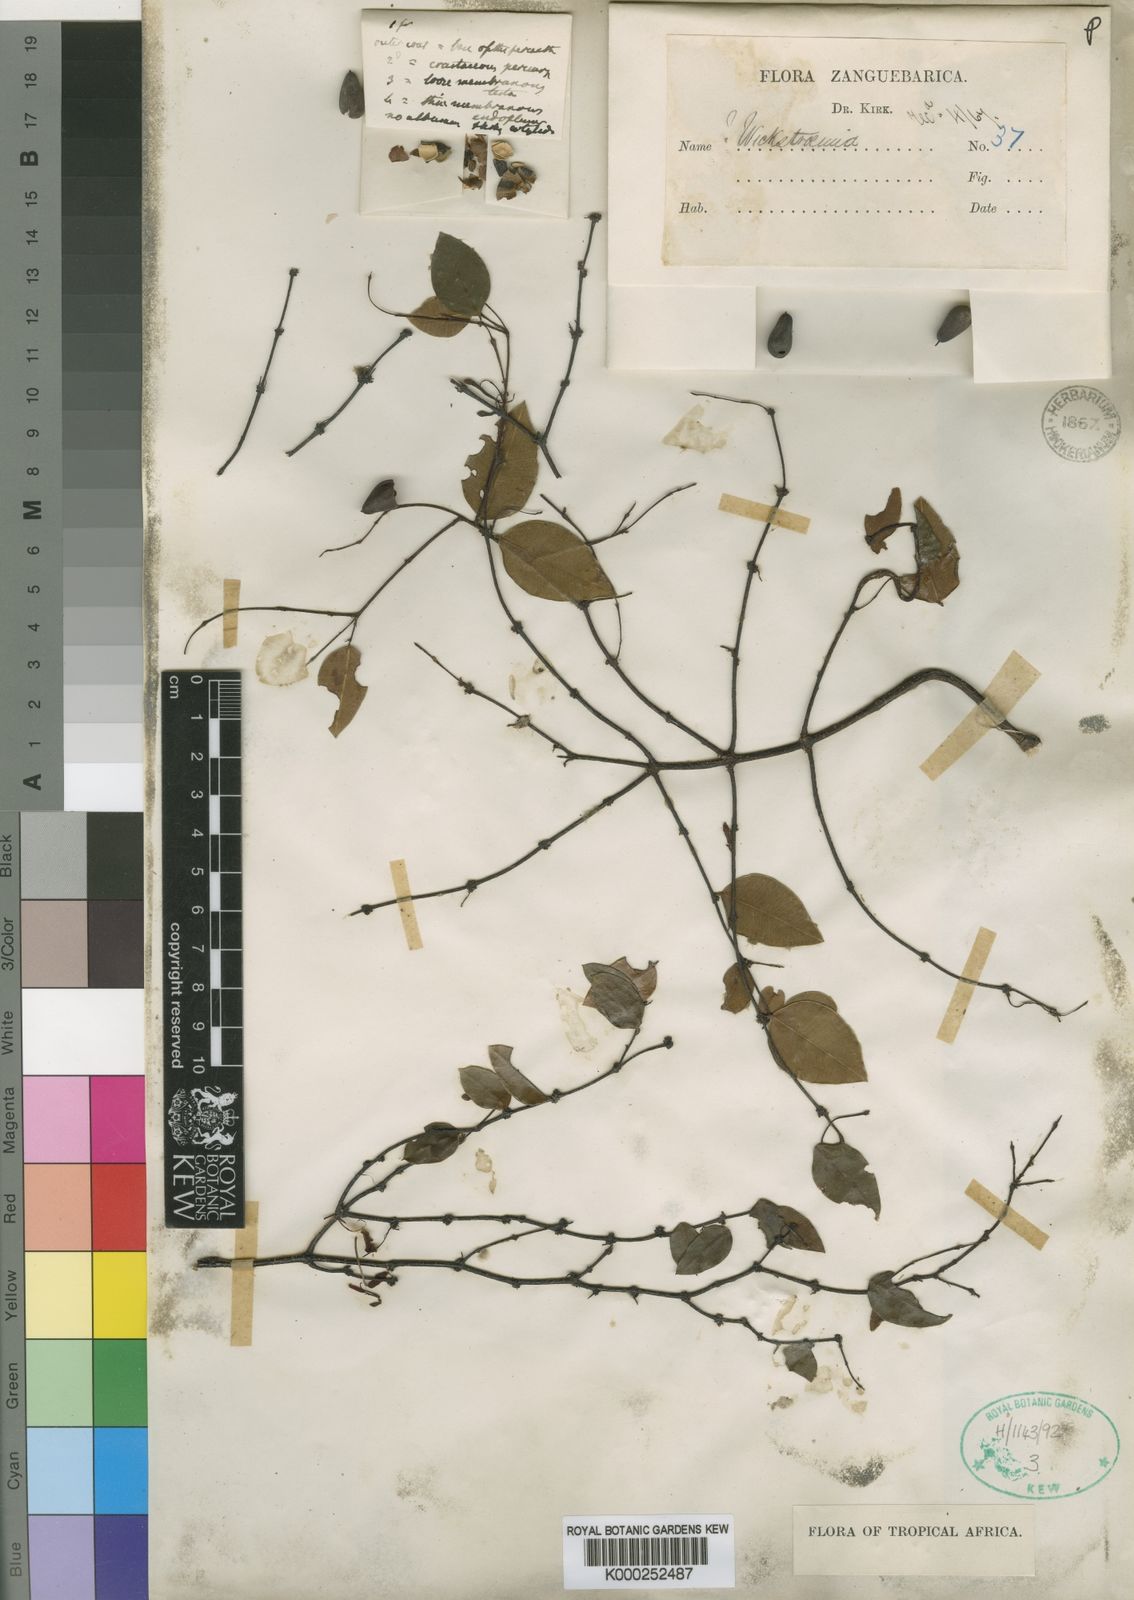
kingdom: Plantae
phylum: Tracheophyta
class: Magnoliopsida
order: Malvales
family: Thymelaeaceae
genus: Synaptolepis
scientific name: Synaptolepis kirkii
